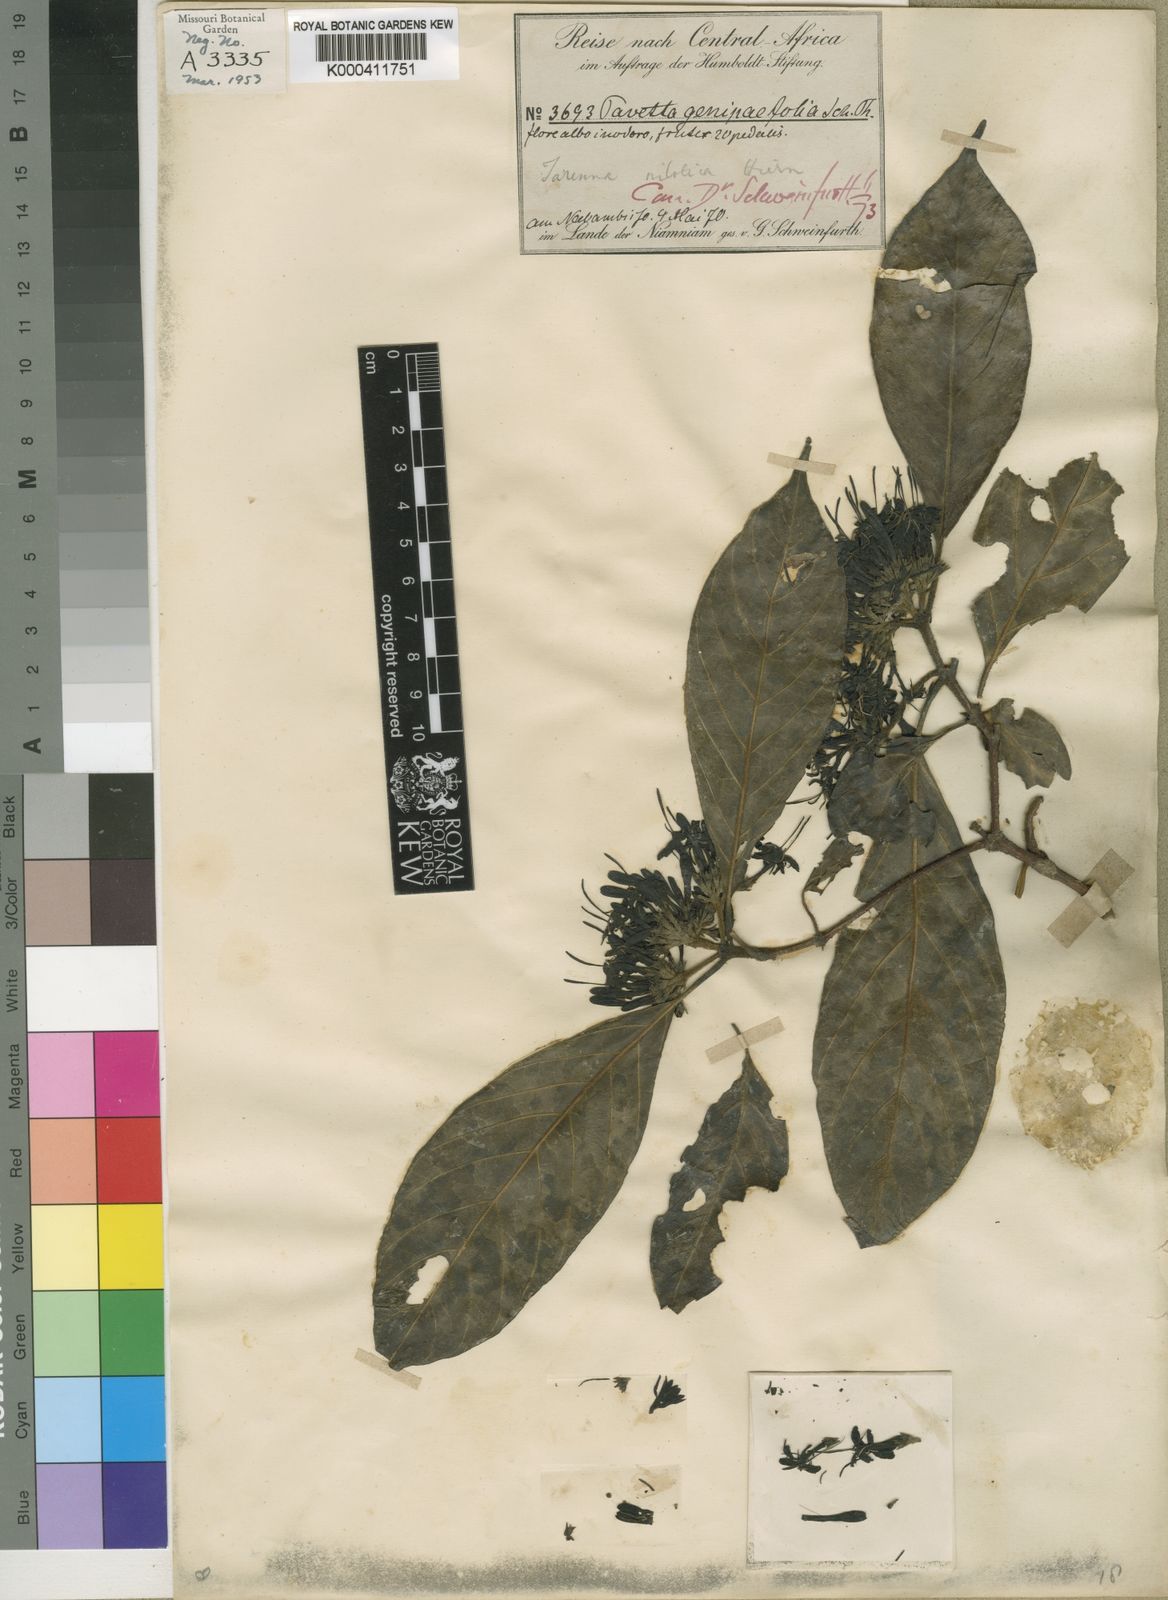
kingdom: Plantae
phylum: Tracheophyta
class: Magnoliopsida
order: Gentianales
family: Rubiaceae
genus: Tarenna
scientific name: Tarenna nilotica
